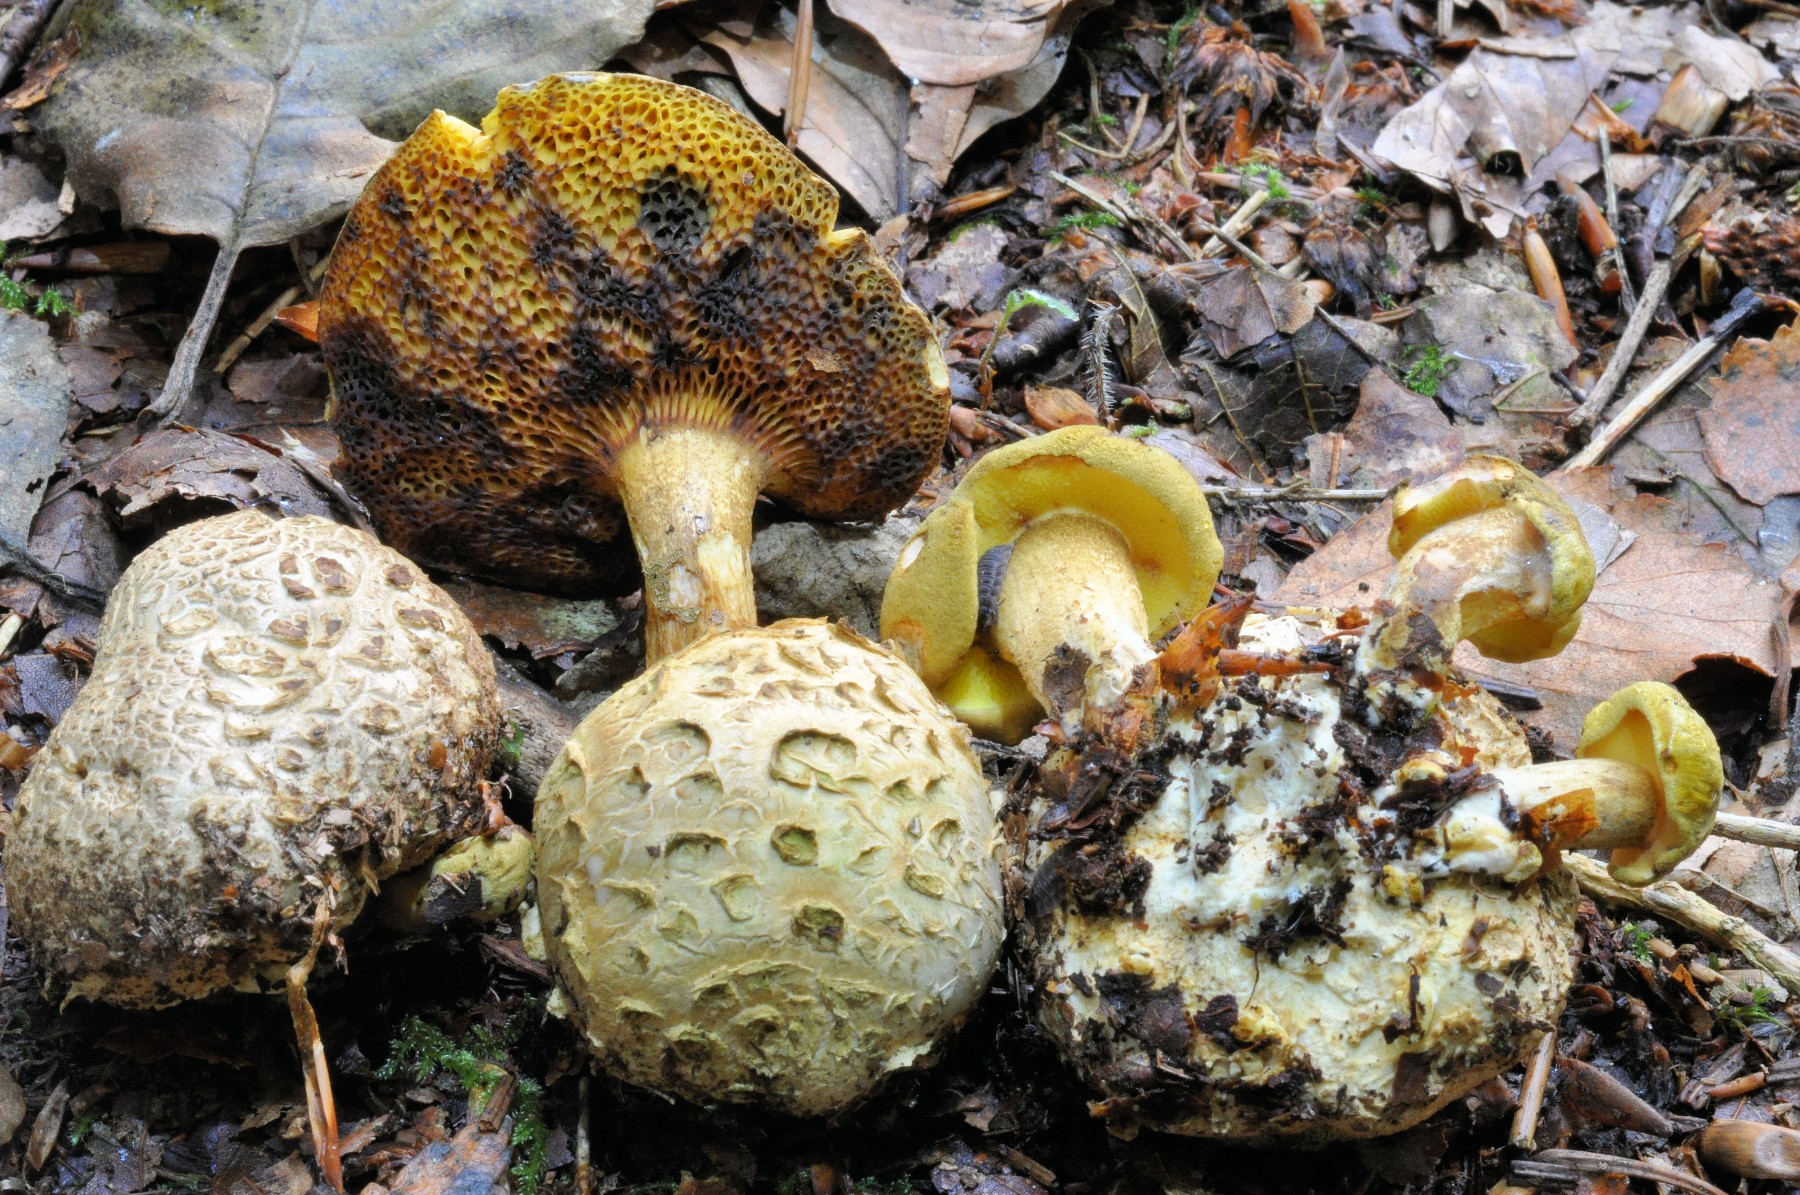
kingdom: Fungi
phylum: Basidiomycota
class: Agaricomycetes
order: Boletales
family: Boletaceae
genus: Pseudoboletus
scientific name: Pseudoboletus parasiticus
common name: snyltende rørhat
